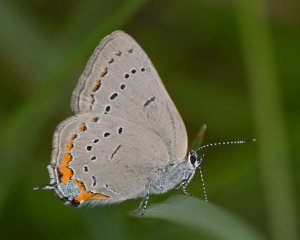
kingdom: Animalia
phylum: Arthropoda
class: Insecta
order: Lepidoptera
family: Lycaenidae
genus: Strymon
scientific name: Strymon acadica
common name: Acadian Hairstreak
